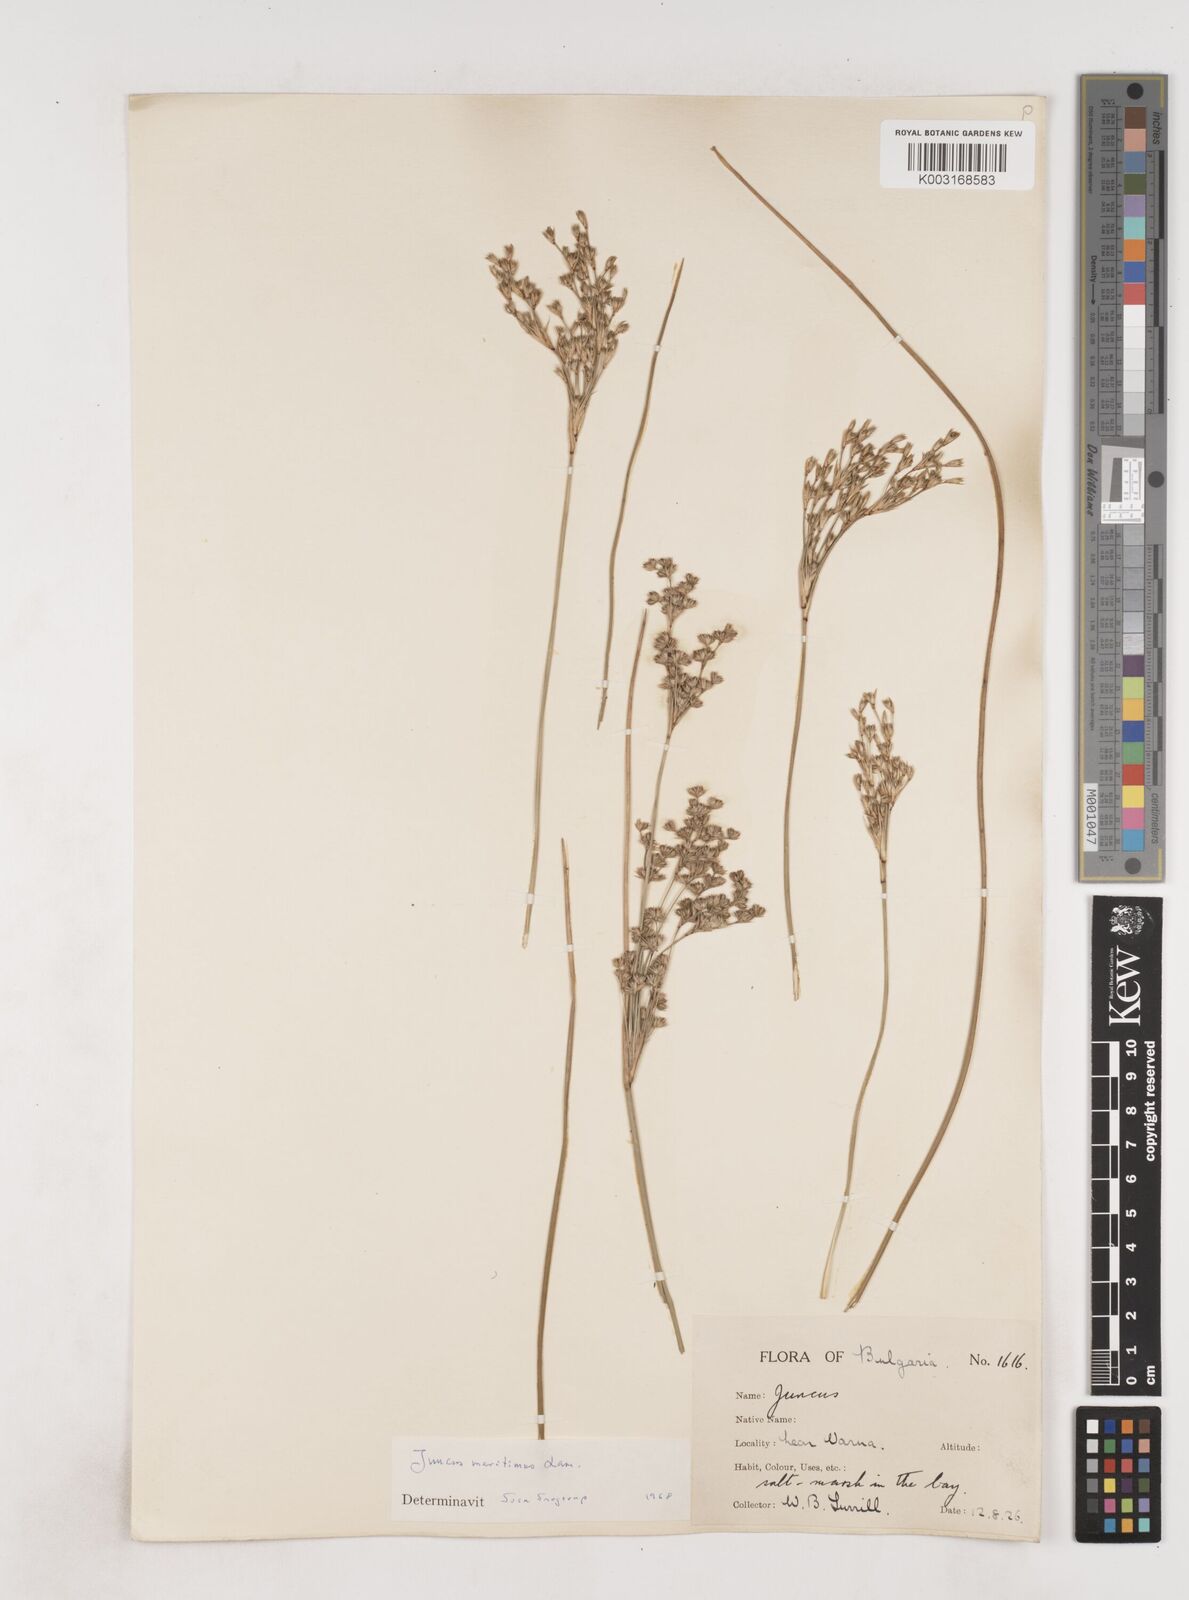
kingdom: Plantae
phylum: Tracheophyta
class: Liliopsida
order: Poales
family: Juncaceae
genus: Juncus
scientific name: Juncus maritimus
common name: Sea rush
